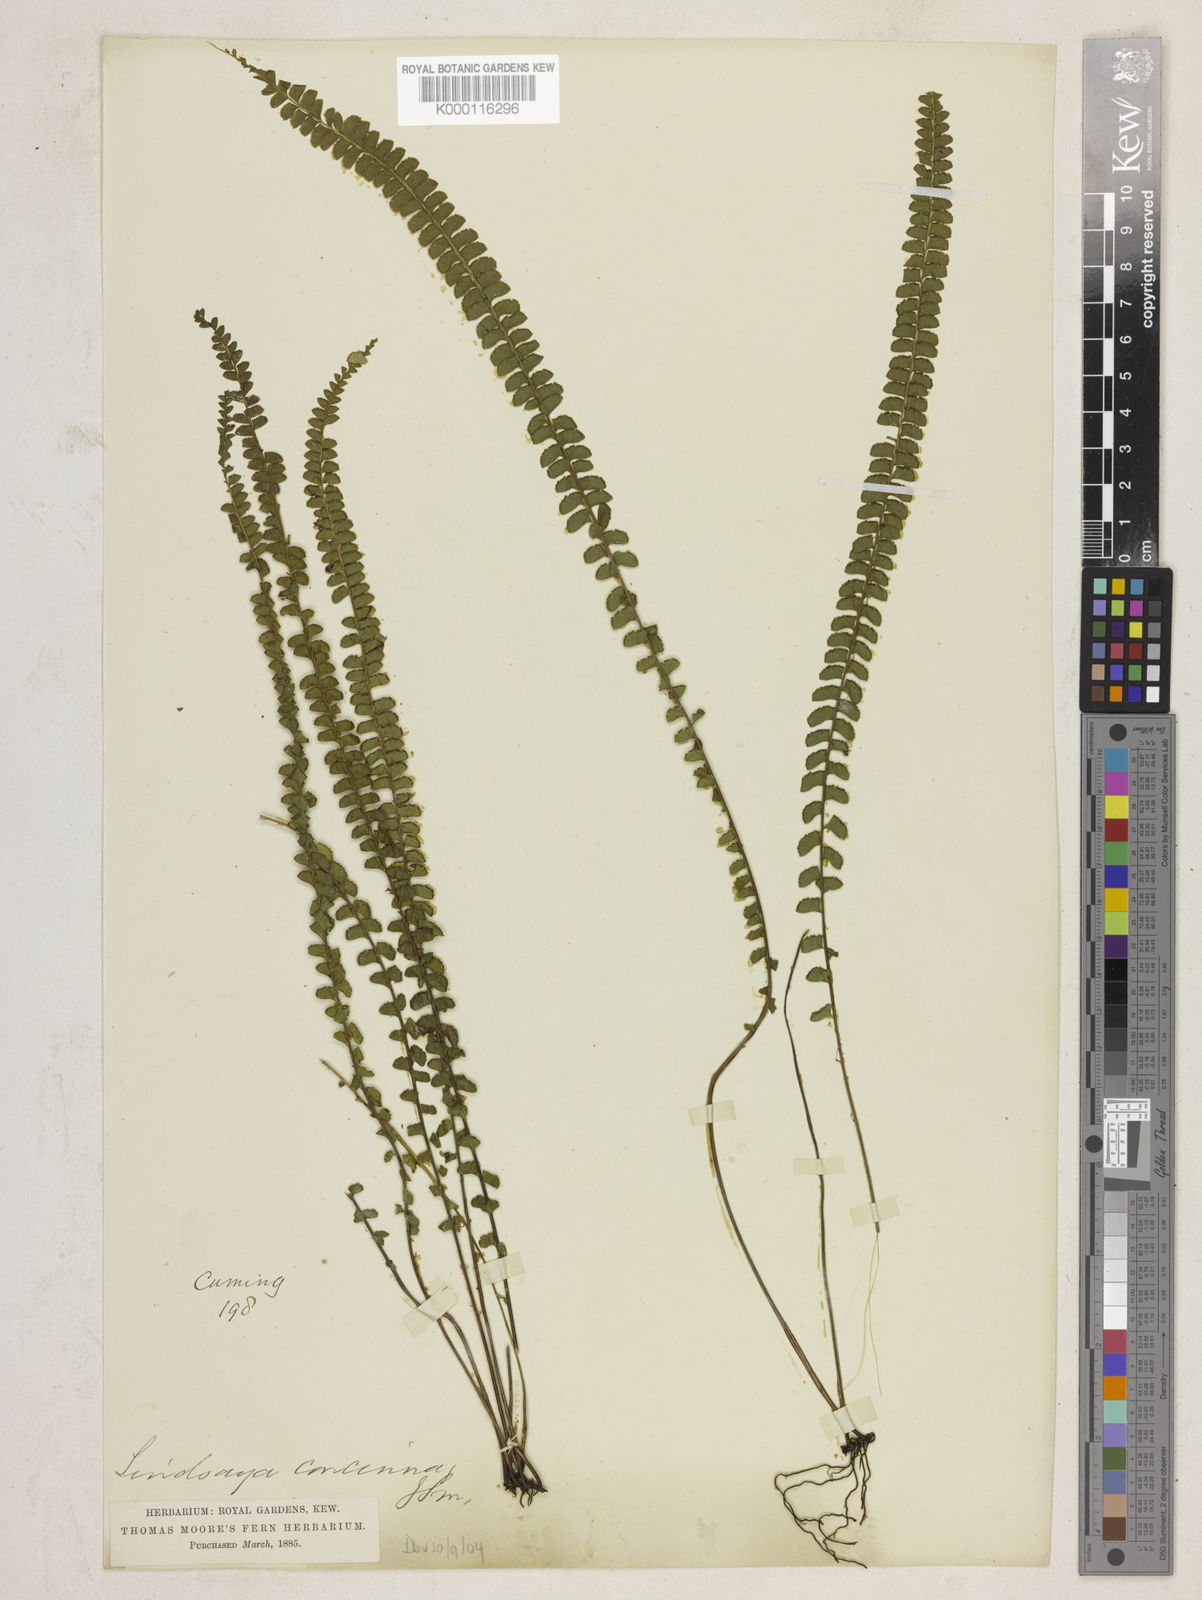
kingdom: Plantae
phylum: Tracheophyta
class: Polypodiopsida
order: Polypodiales
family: Lindsaeaceae
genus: Lindsaea
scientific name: Lindsaea lucida
